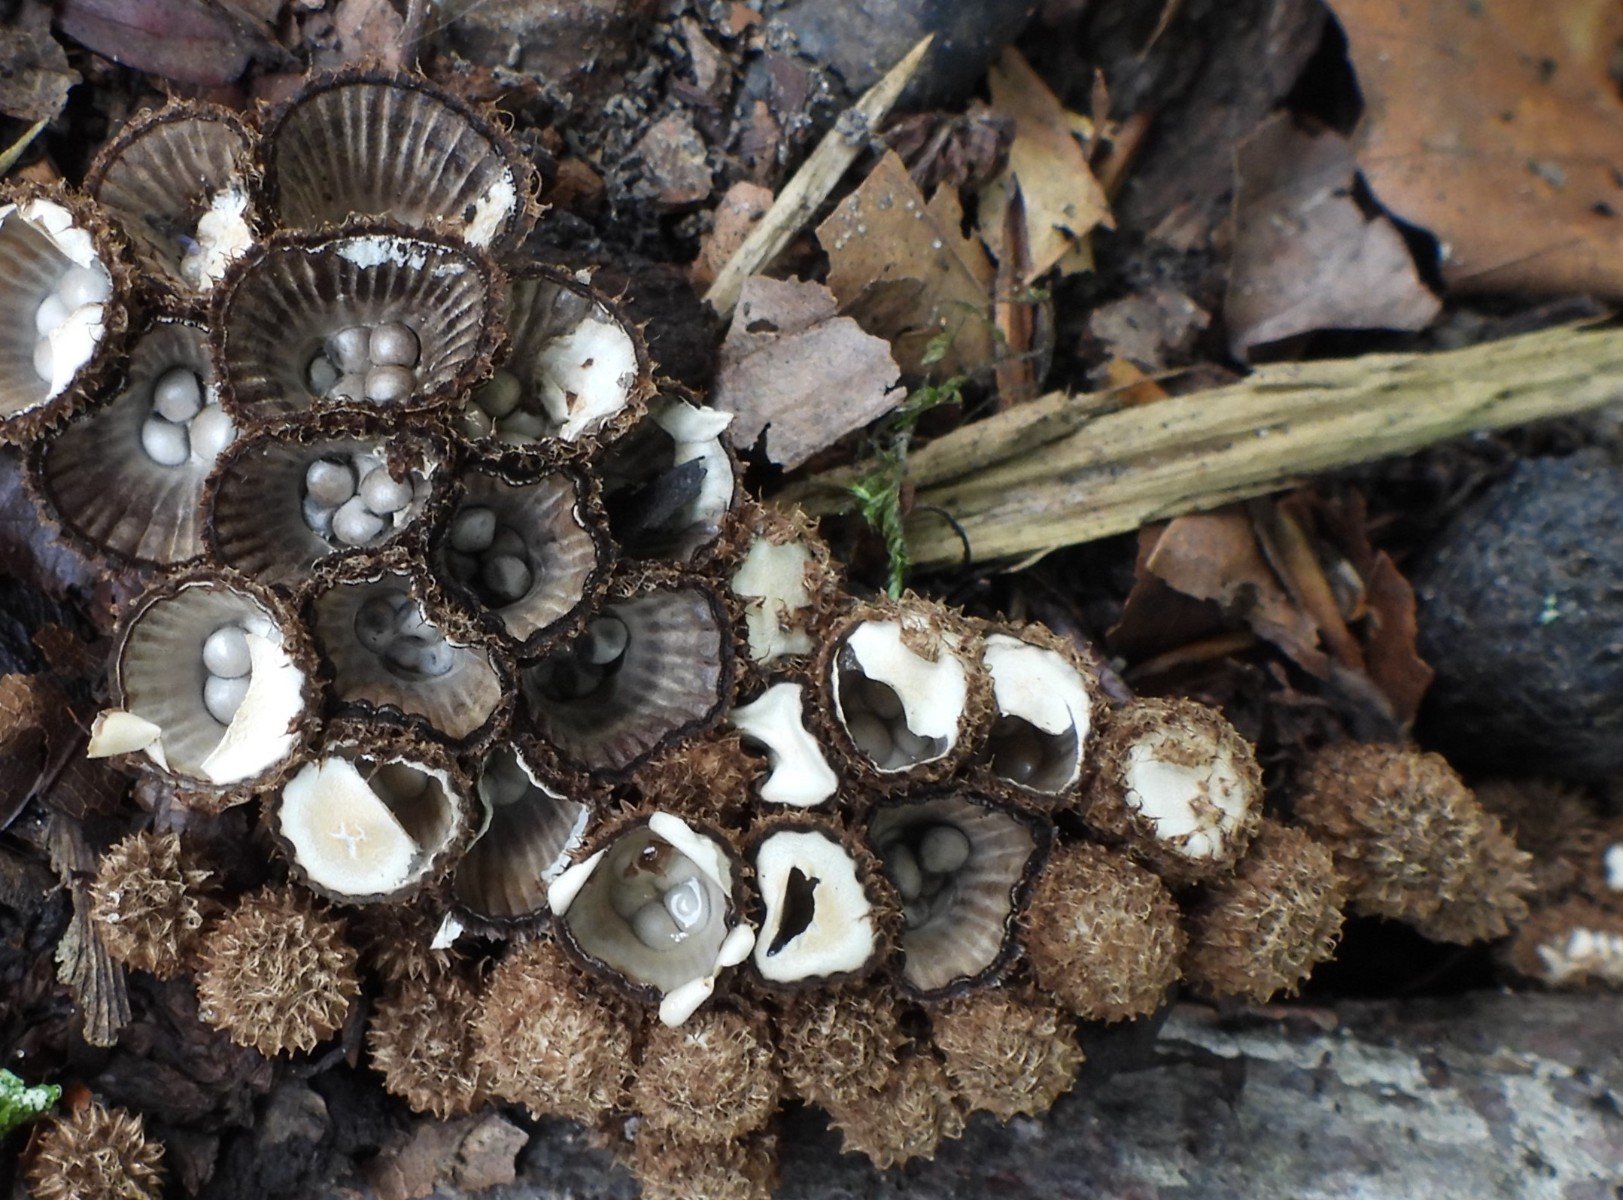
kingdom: Fungi
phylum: Basidiomycota
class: Agaricomycetes
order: Agaricales
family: Agaricaceae
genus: Cyathus
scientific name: Cyathus striatus
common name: stribet redesvamp
